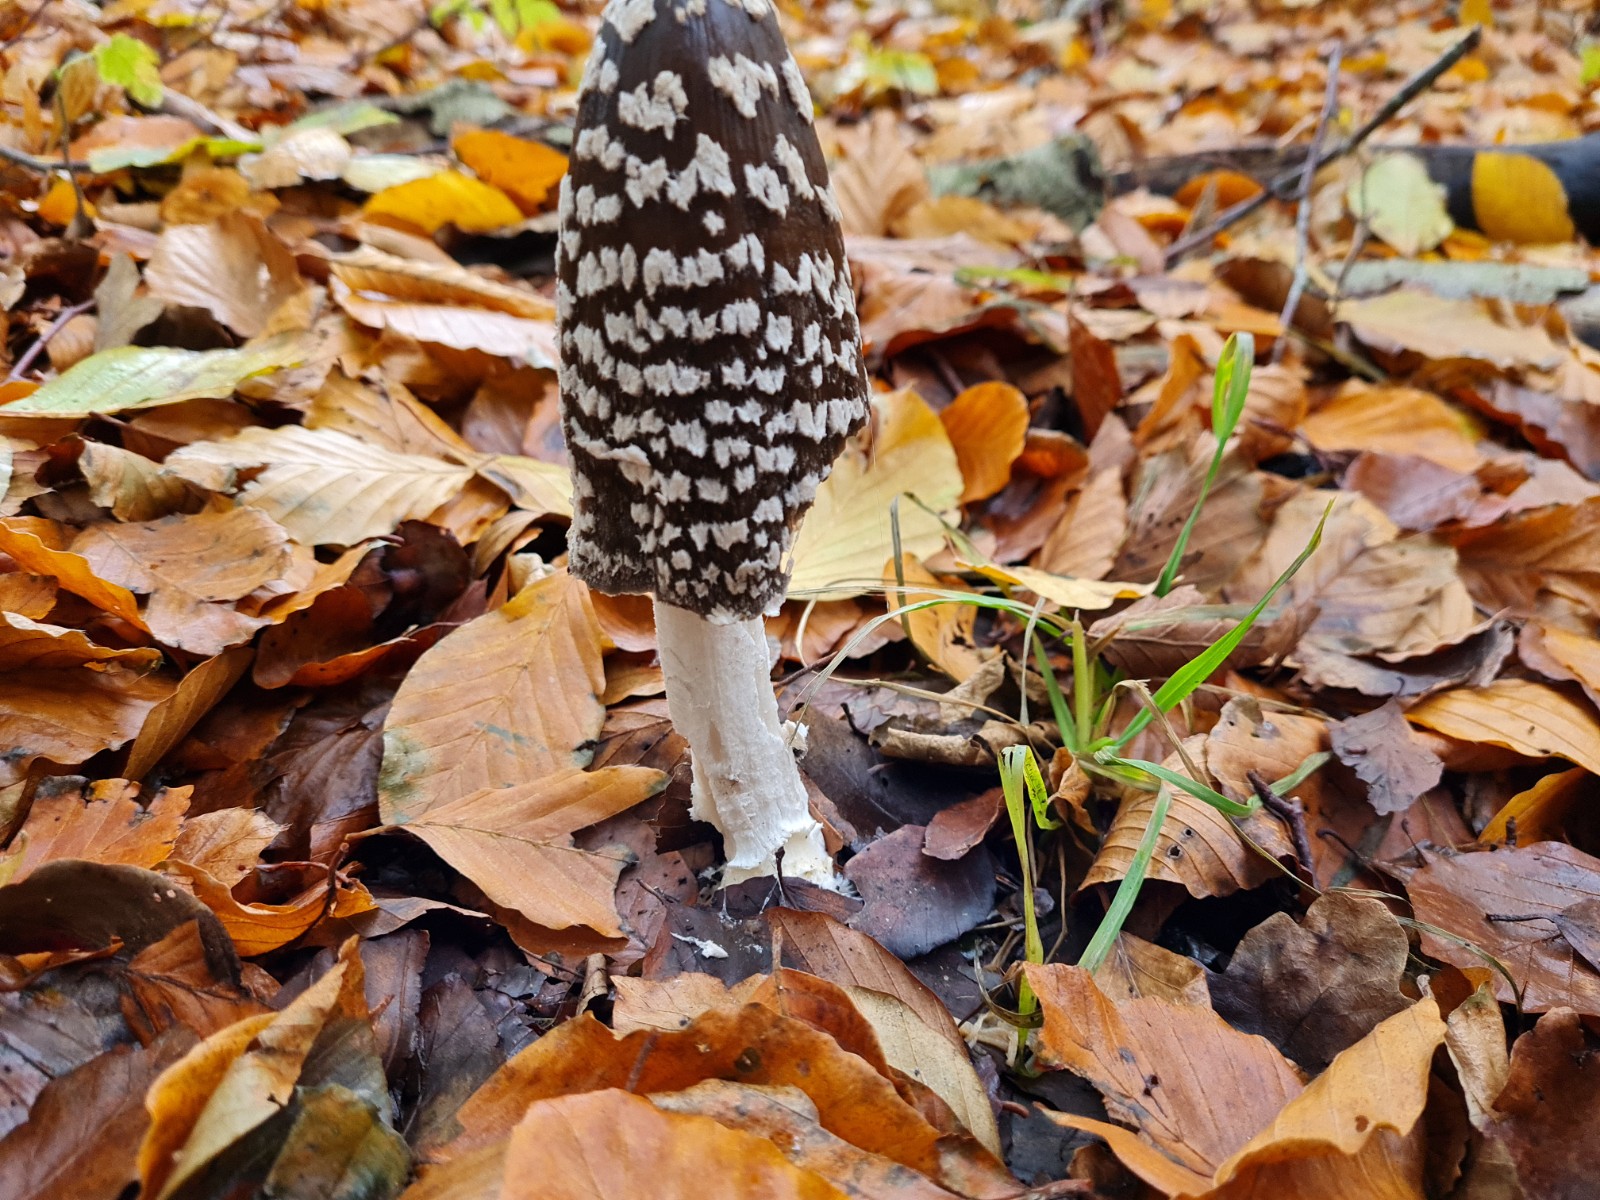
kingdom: Fungi
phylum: Basidiomycota
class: Agaricomycetes
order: Agaricales
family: Psathyrellaceae
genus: Coprinopsis
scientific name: Coprinopsis picacea
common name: skade-blækhat
